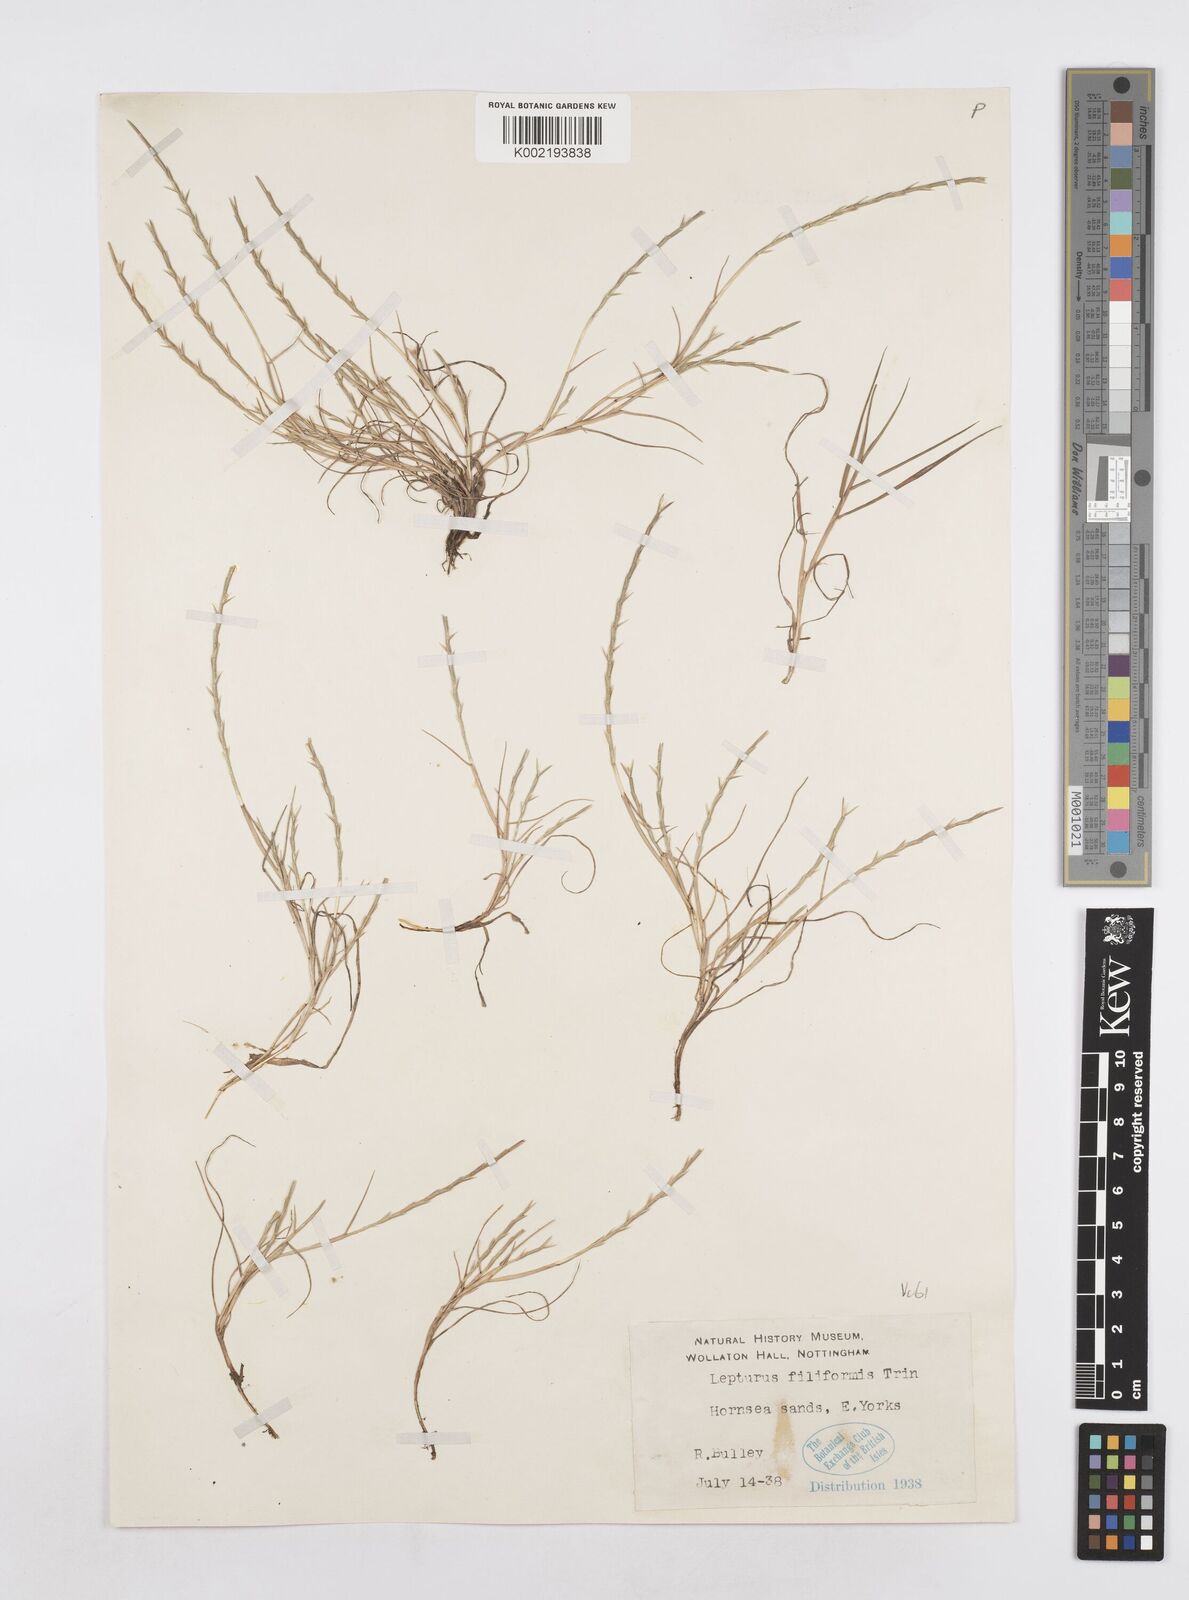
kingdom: Plantae
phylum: Tracheophyta
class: Liliopsida
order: Poales
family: Poaceae
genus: Parapholis
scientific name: Parapholis strigosa
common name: Hard-grass
